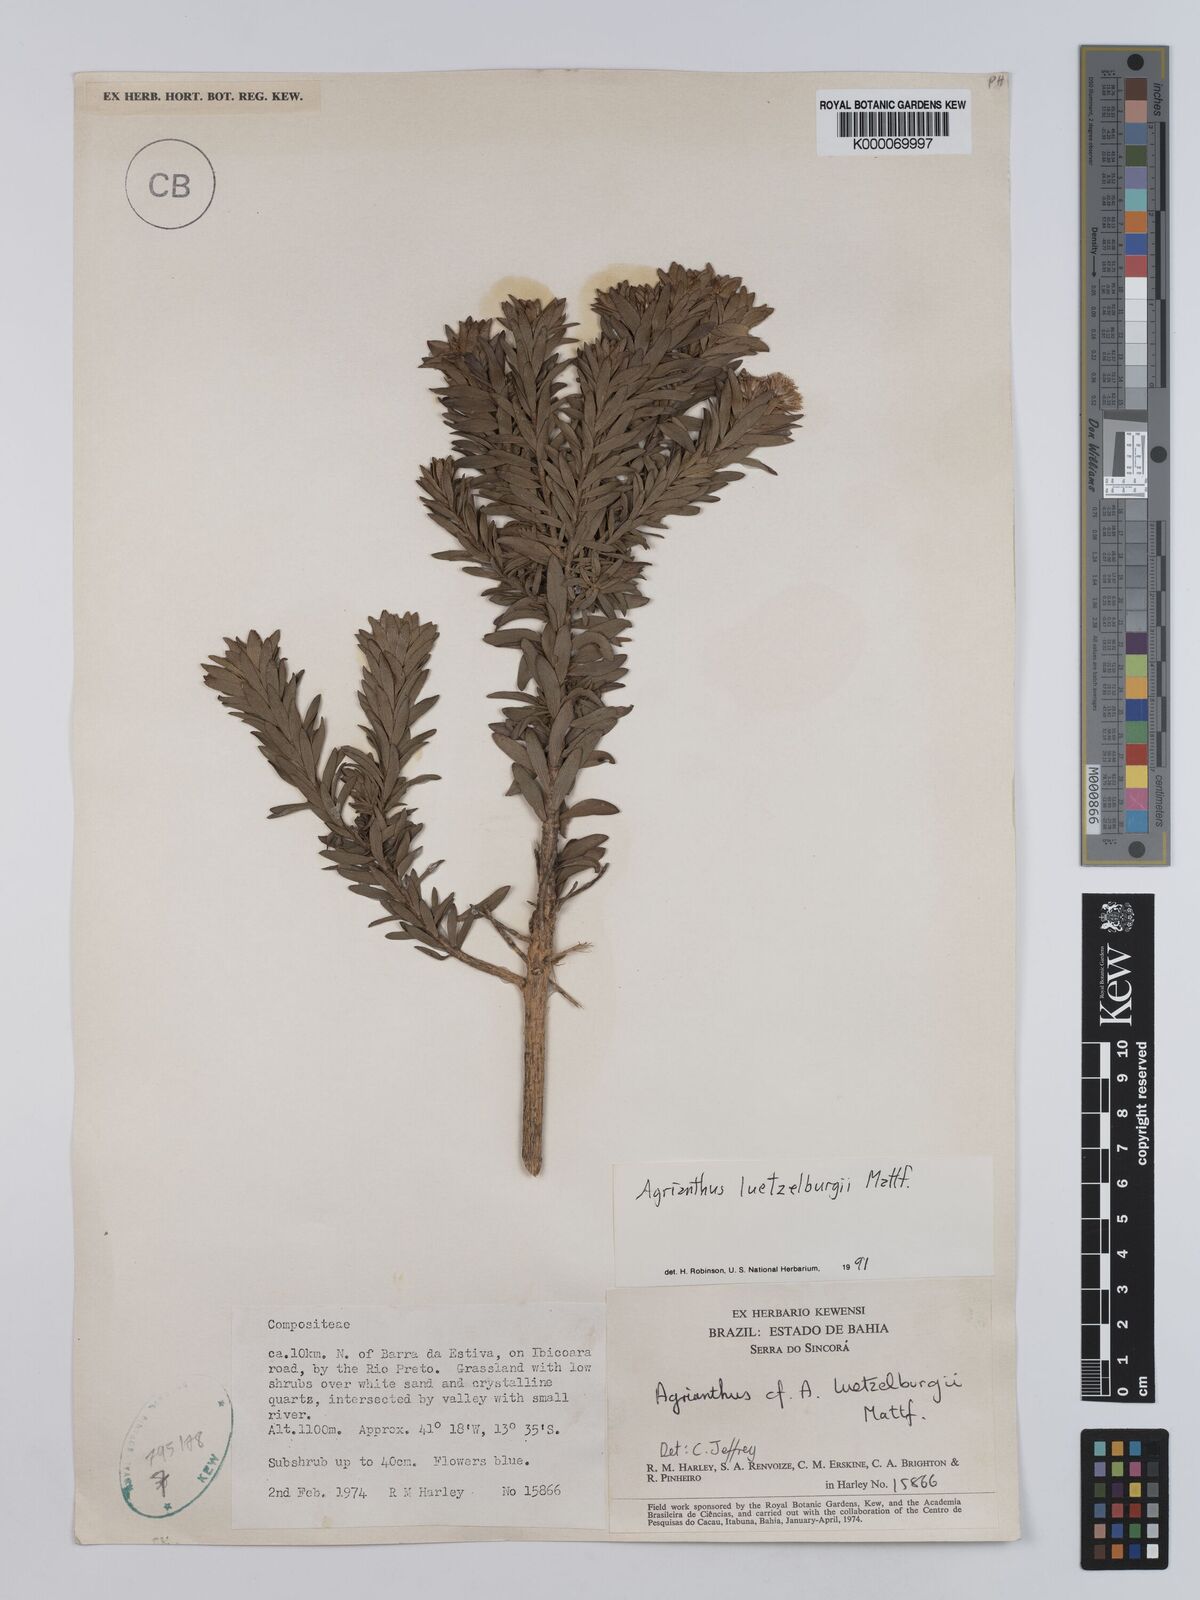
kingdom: Plantae
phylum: Tracheophyta
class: Magnoliopsida
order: Asterales
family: Asteraceae
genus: Agrianthus
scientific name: Agrianthus
